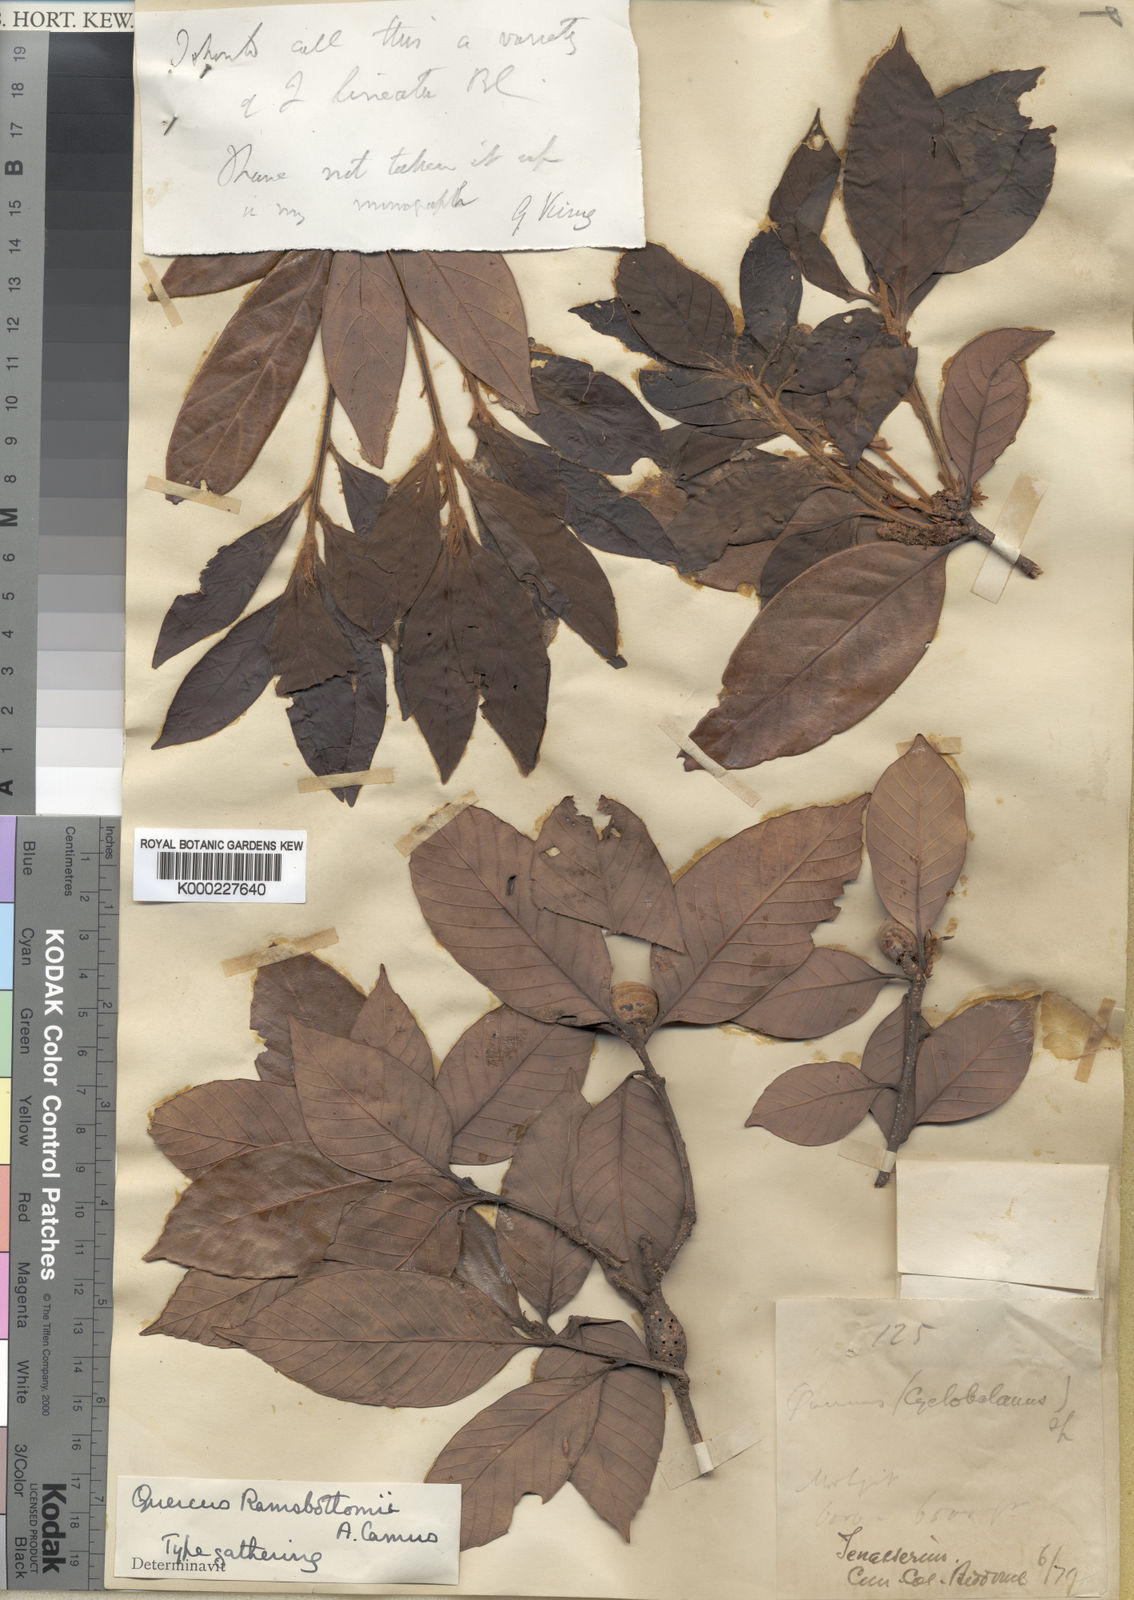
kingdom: Plantae
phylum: Tracheophyta
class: Magnoliopsida
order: Fagales
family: Fagaceae
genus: Quercus
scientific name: Quercus ramsbottomii
